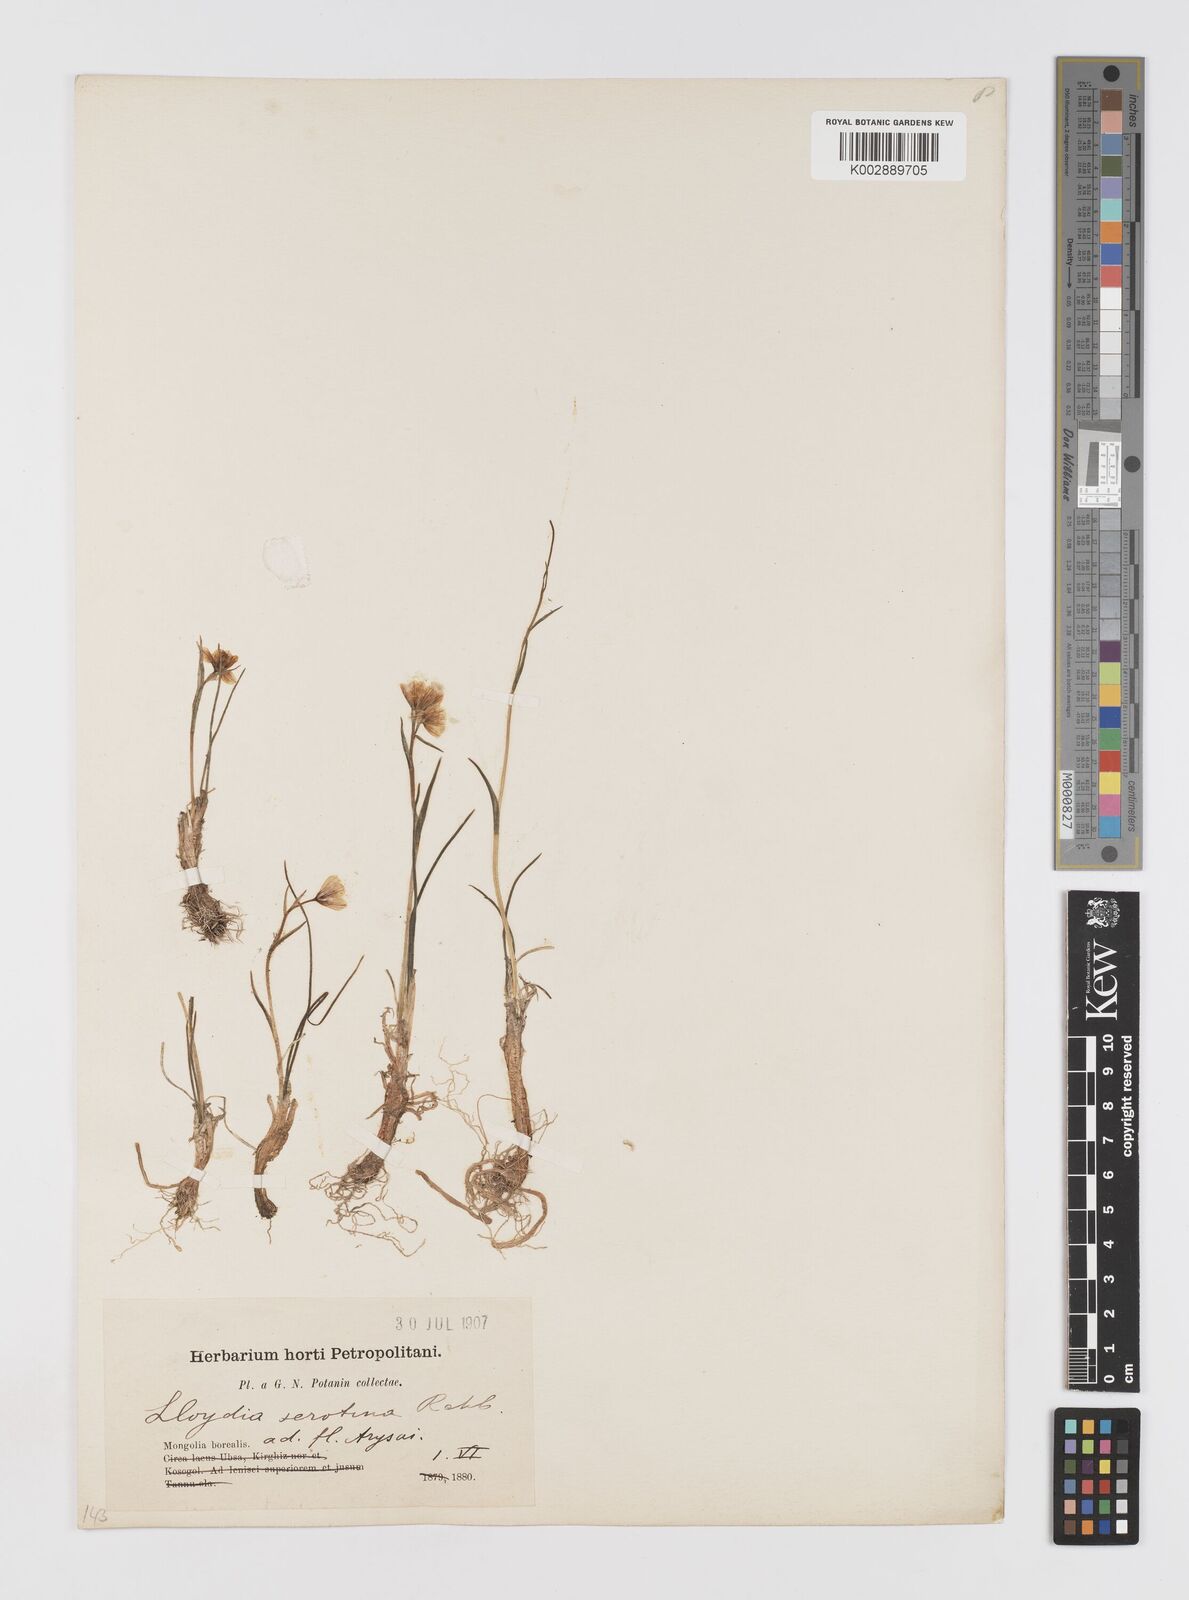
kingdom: Plantae
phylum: Tracheophyta
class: Liliopsida
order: Liliales
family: Liliaceae
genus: Gagea
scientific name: Gagea serotina
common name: Snowdon lily
